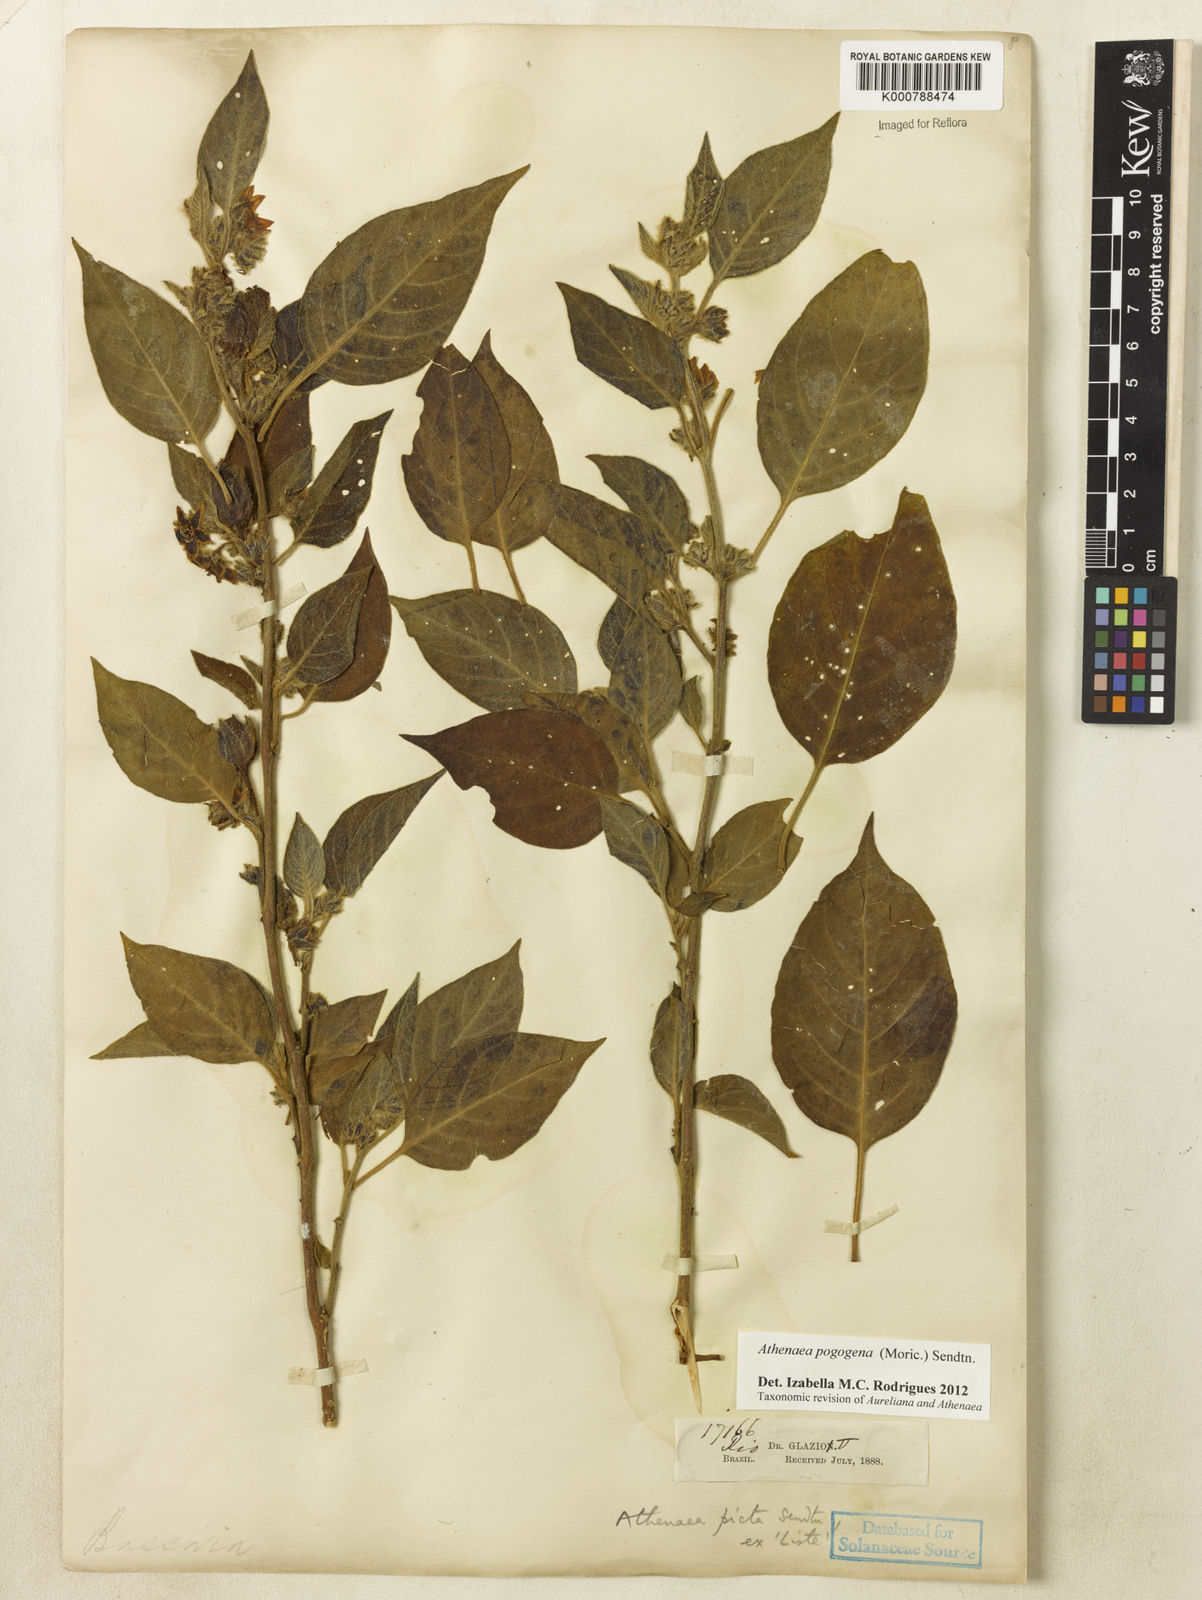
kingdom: Plantae
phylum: Tracheophyta
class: Magnoliopsida
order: Solanales
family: Solanaceae
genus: Athenaea
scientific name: Athenaea pogogena
